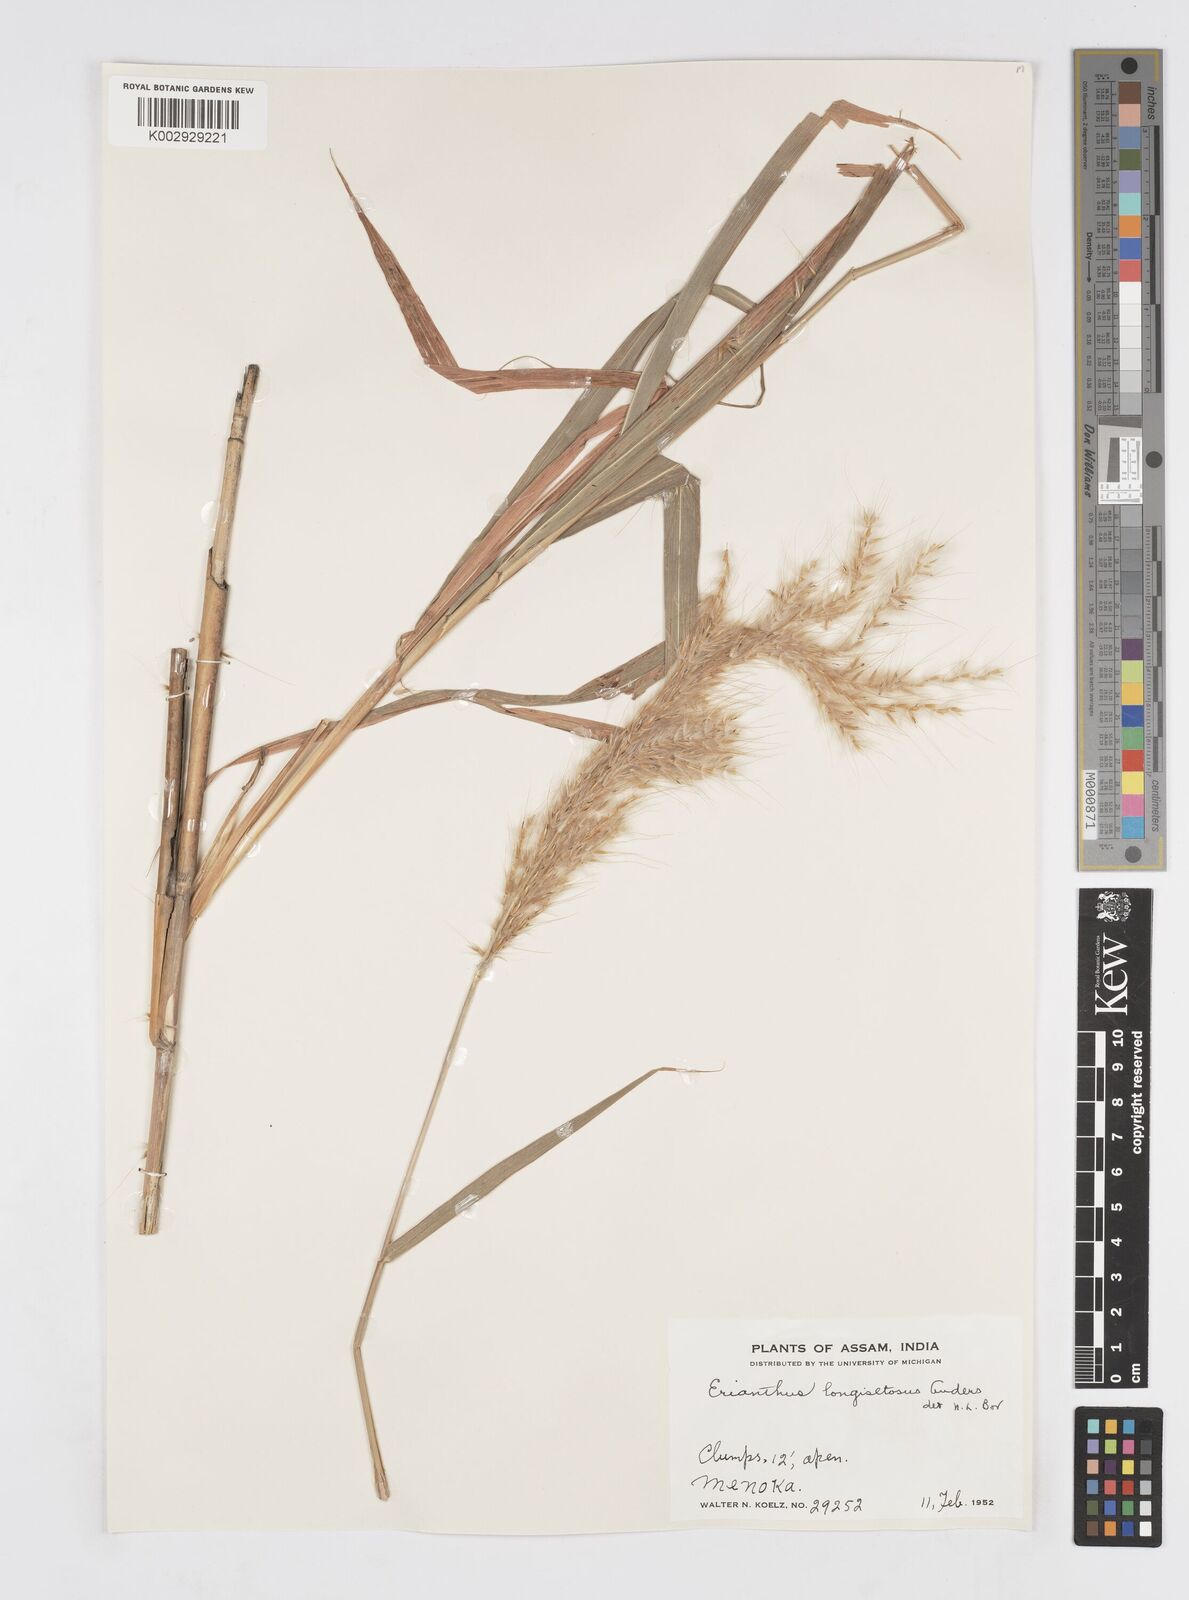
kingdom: Plantae
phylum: Tracheophyta
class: Liliopsida
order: Poales
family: Poaceae
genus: Melinis
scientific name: Melinis longiseta
